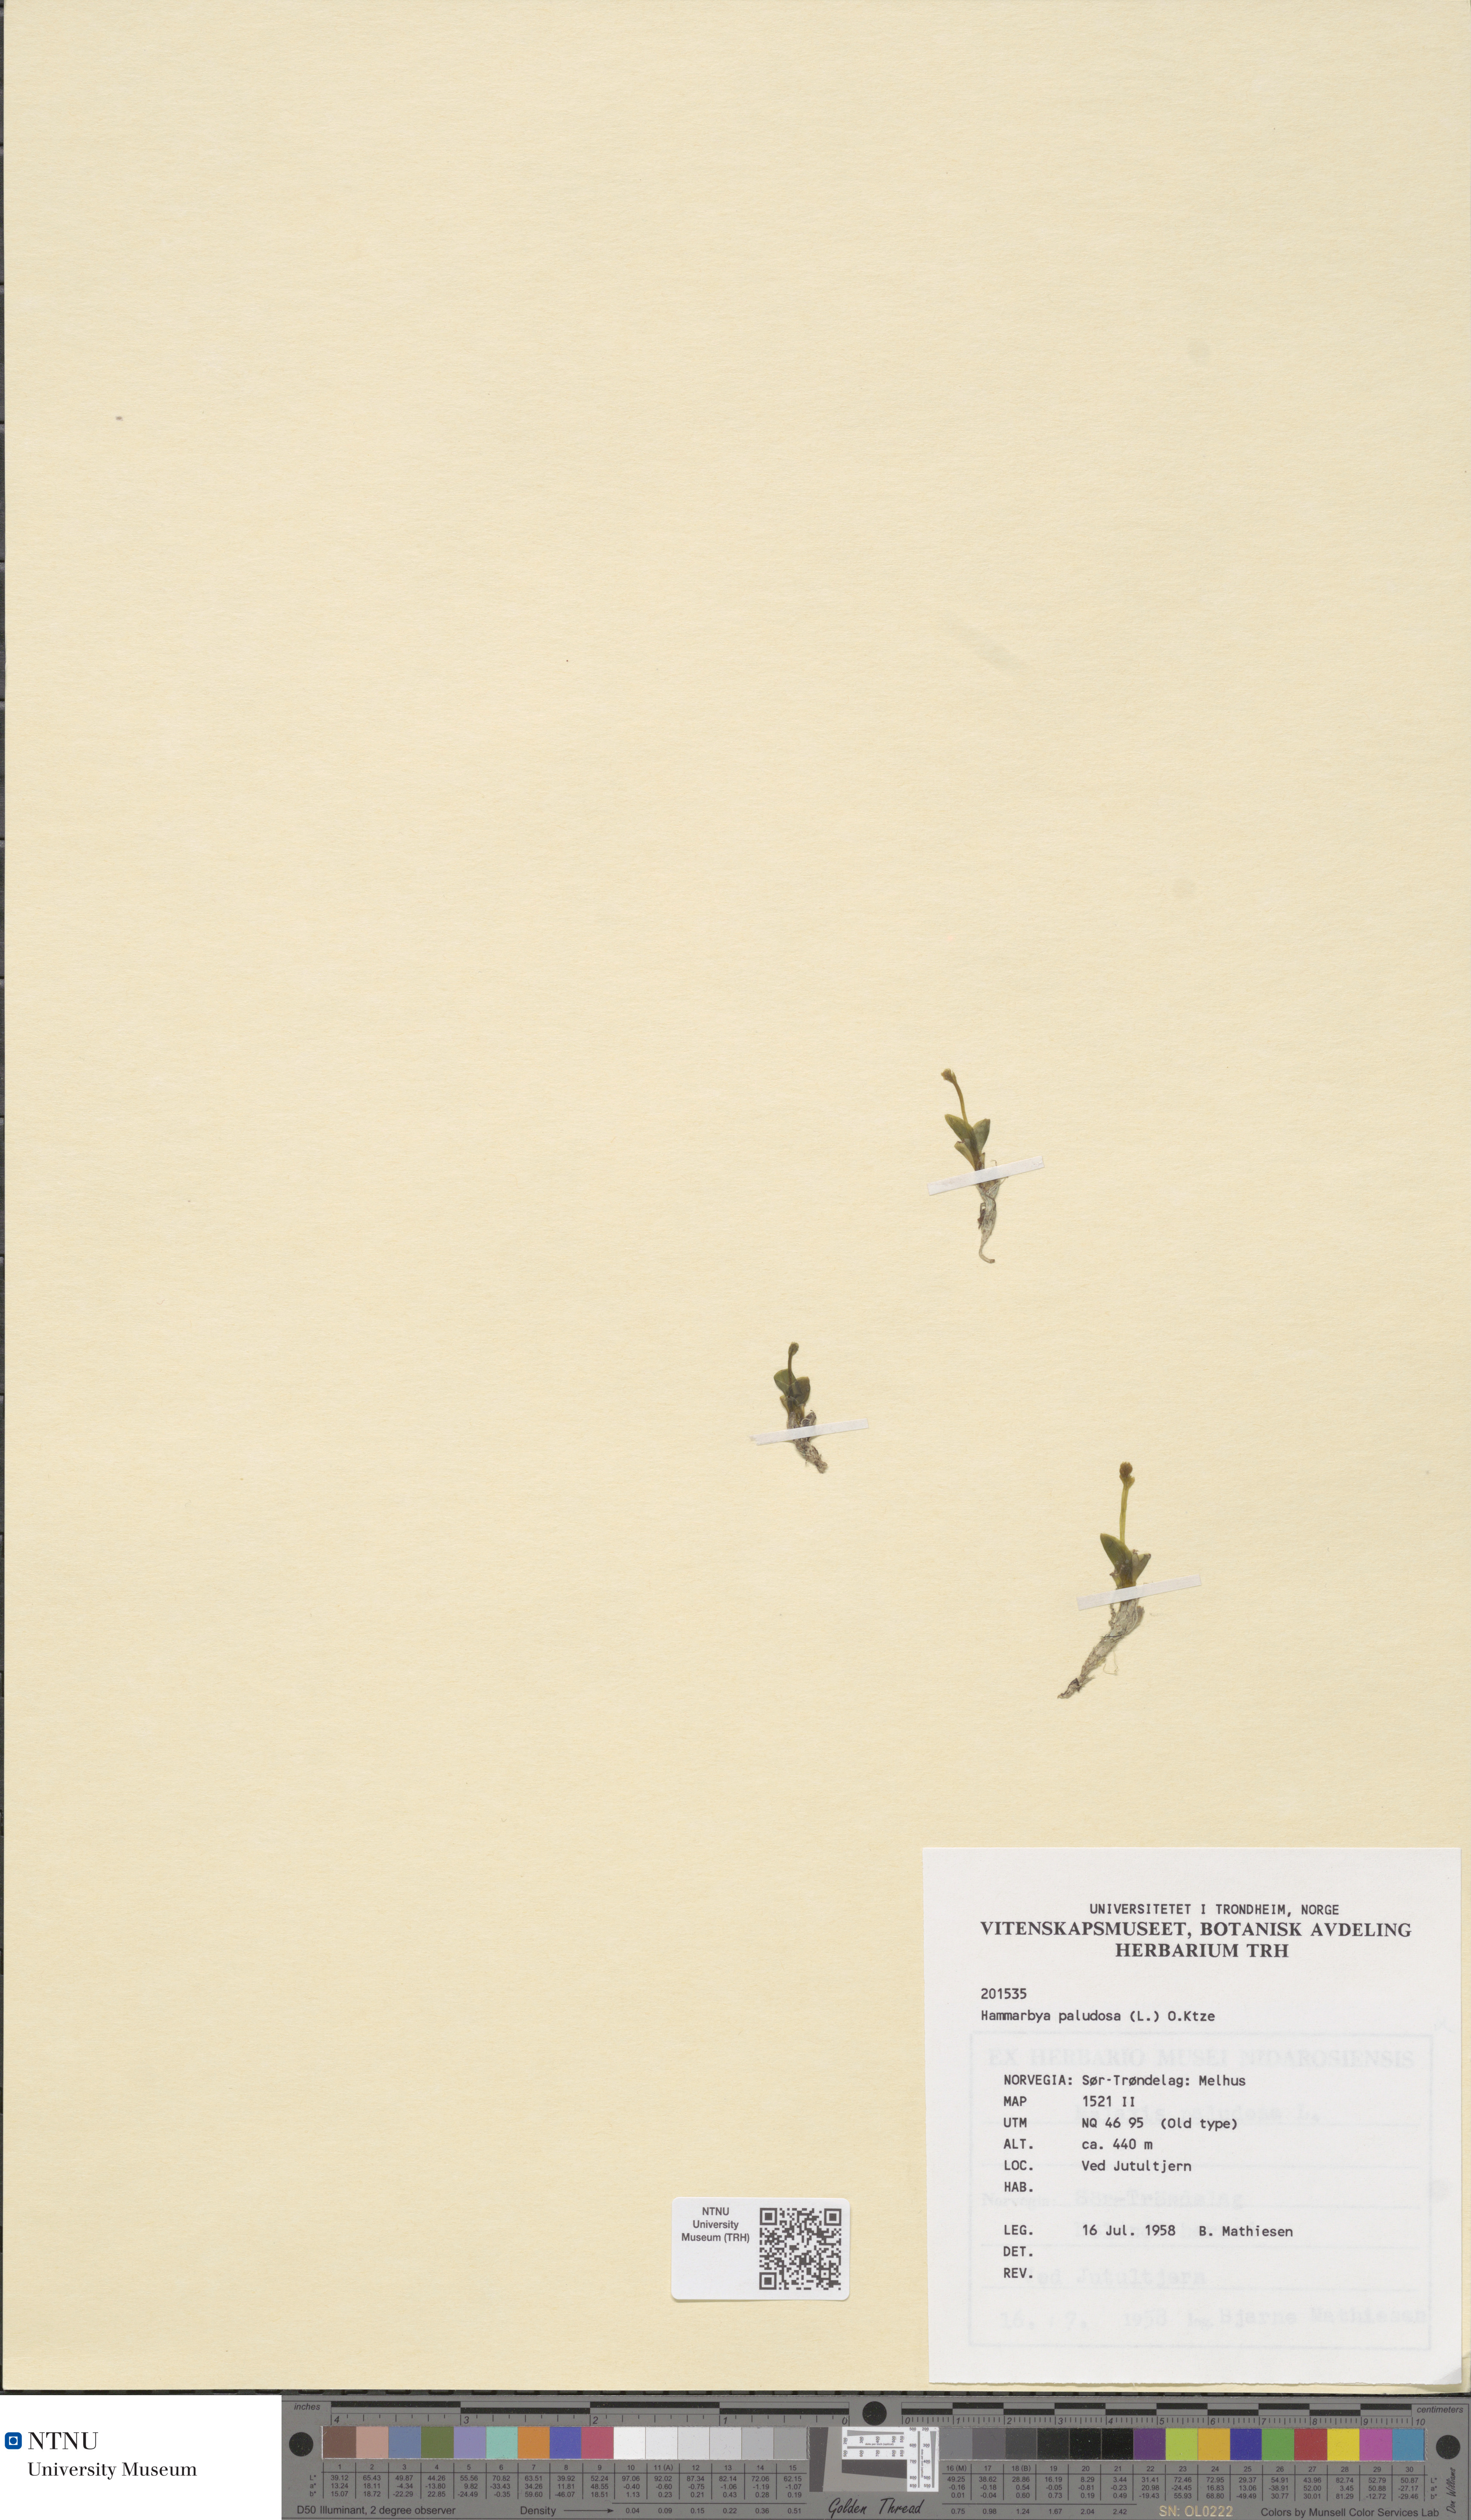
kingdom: Plantae
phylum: Tracheophyta
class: Liliopsida
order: Asparagales
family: Orchidaceae
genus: Hammarbya
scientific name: Hammarbya paludosa
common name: Bog orchid
